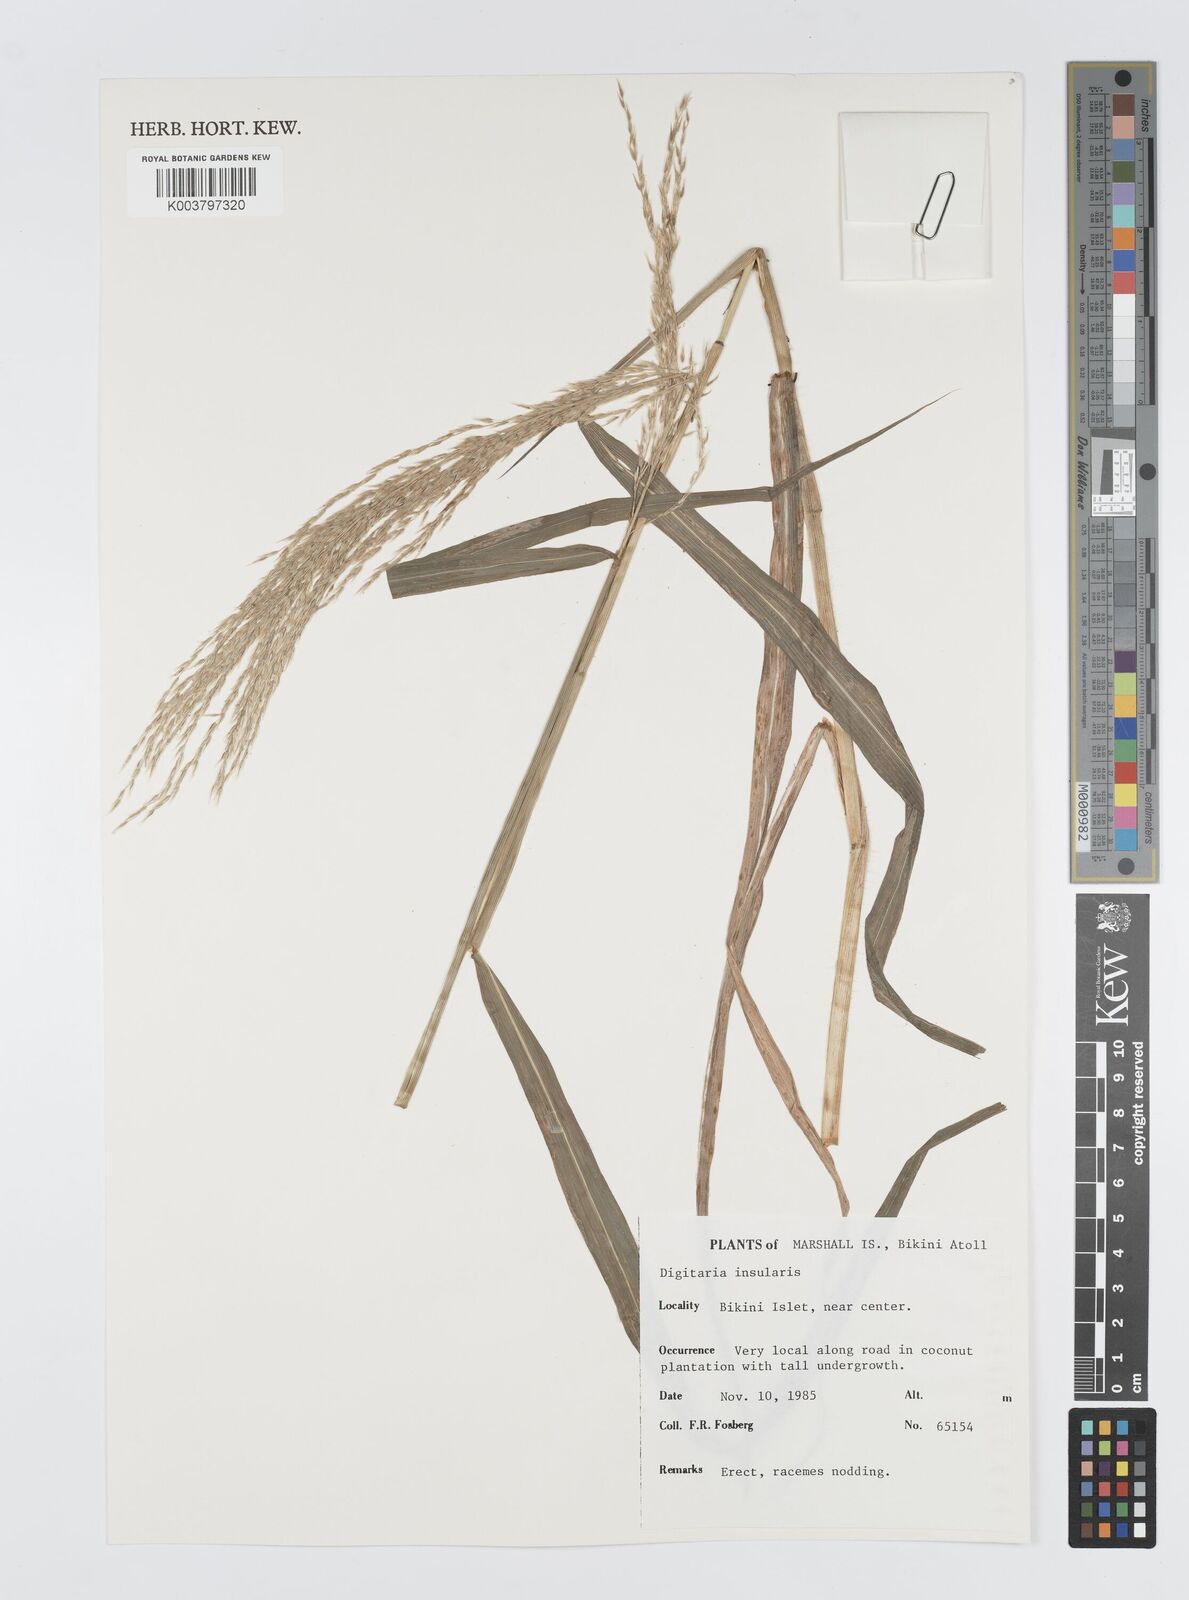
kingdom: Plantae
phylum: Tracheophyta
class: Liliopsida
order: Poales
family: Poaceae
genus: Digitaria
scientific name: Digitaria insularis
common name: Sourgrass
